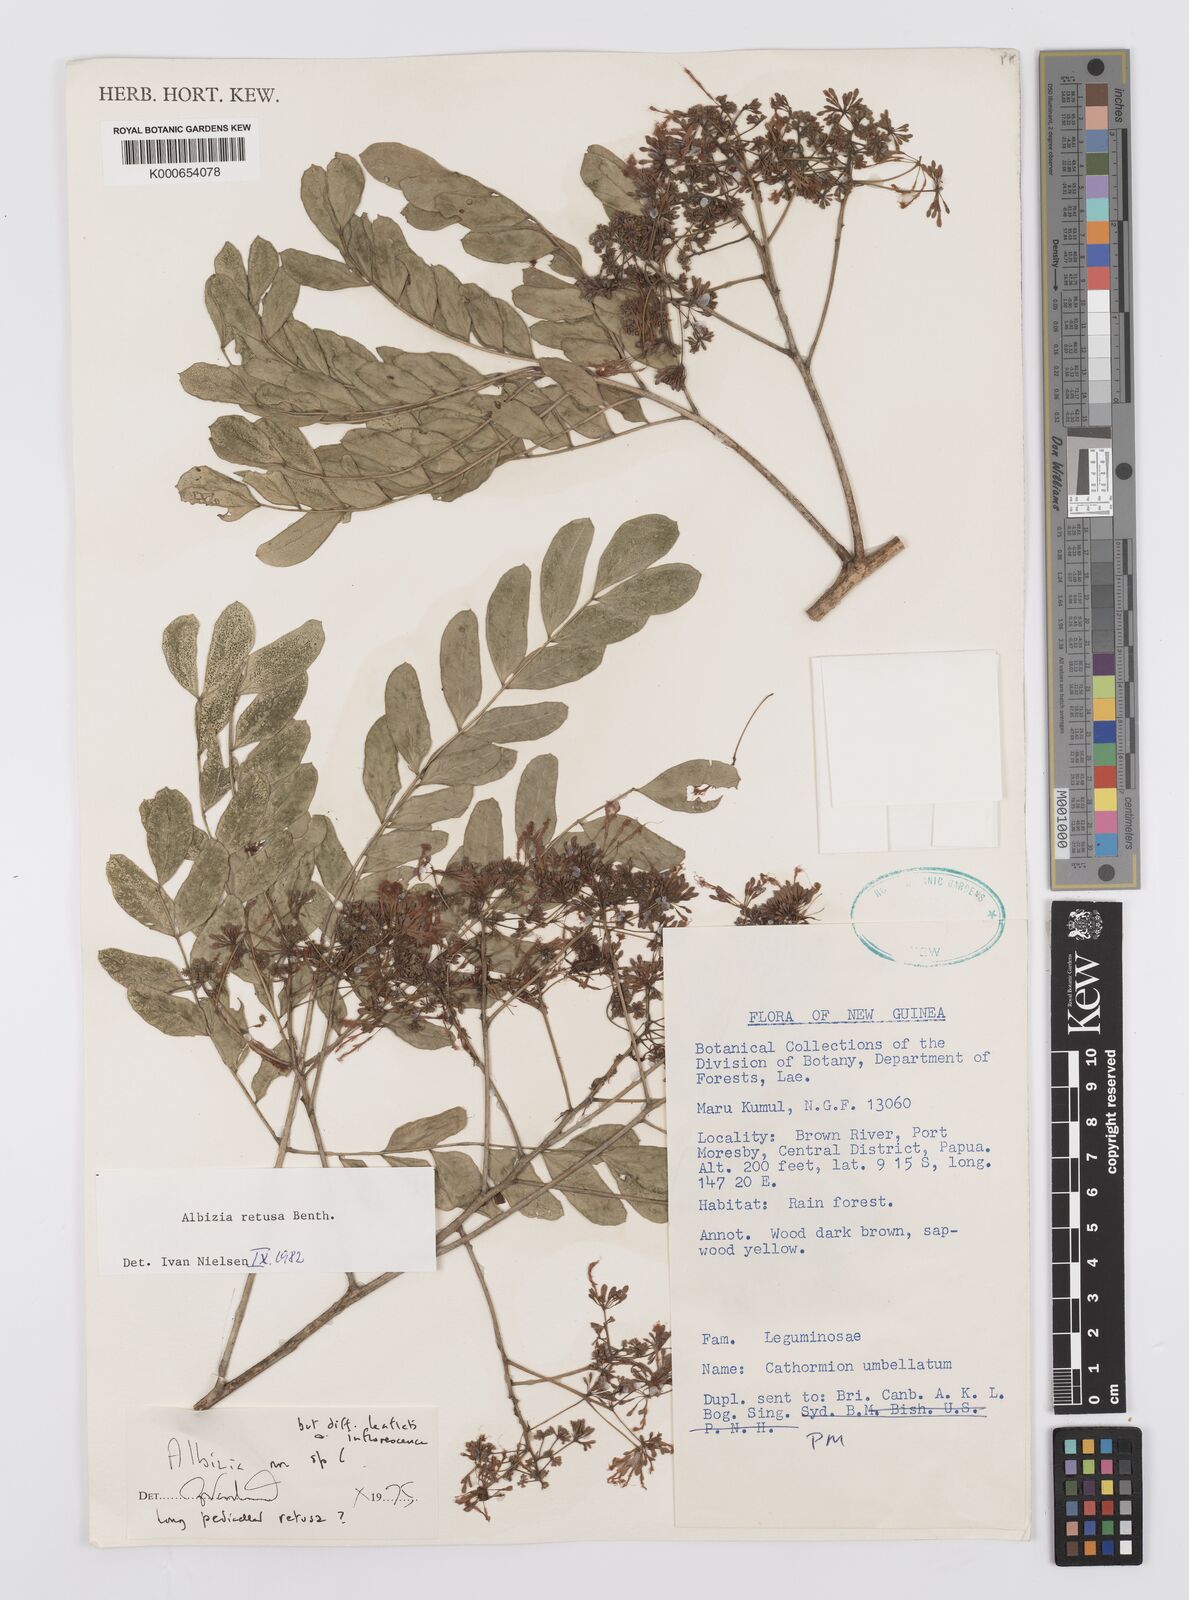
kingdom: Plantae
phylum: Tracheophyta
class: Magnoliopsida
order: Fabales
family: Fabaceae
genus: Albizia
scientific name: Albizia retusa
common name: Sea albizia
